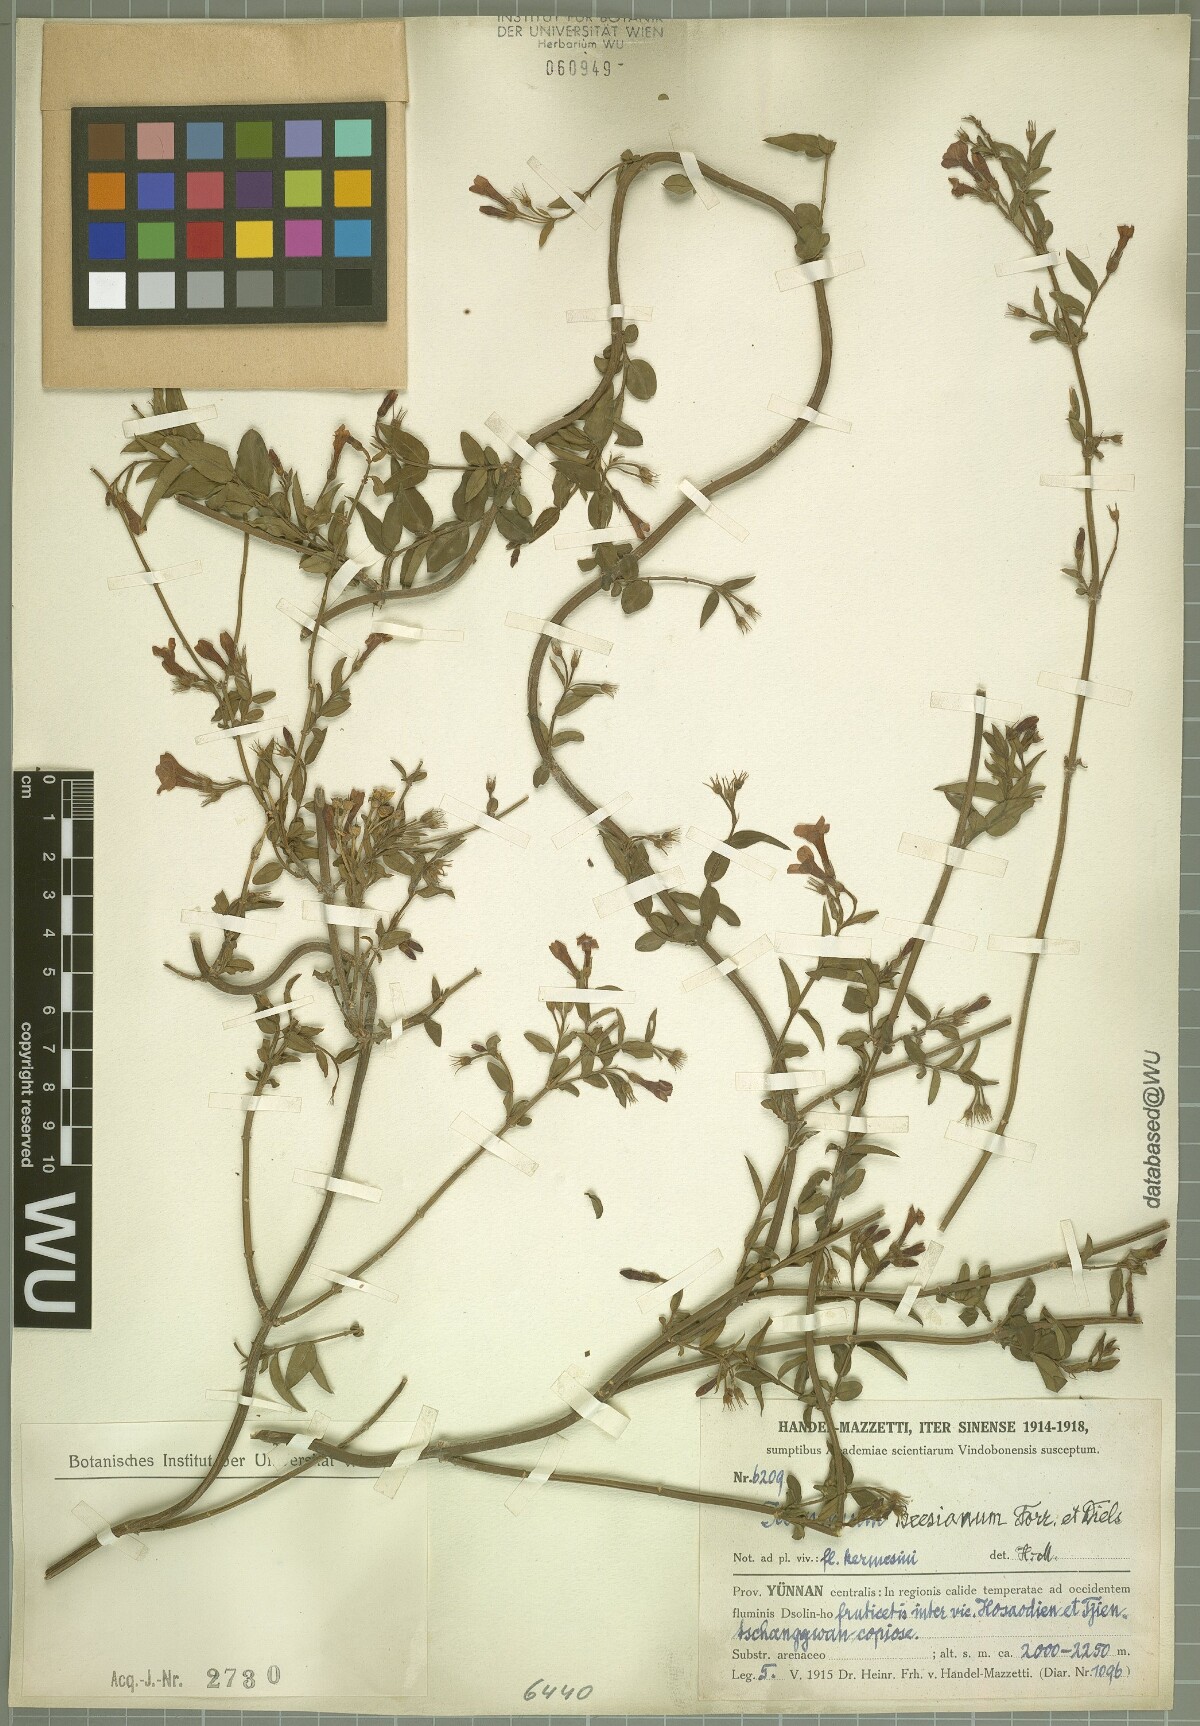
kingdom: Plantae
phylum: Tracheophyta
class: Magnoliopsida
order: Lamiales
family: Oleaceae
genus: Jasminum
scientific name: Jasminum beesianum
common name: Red jasmine
